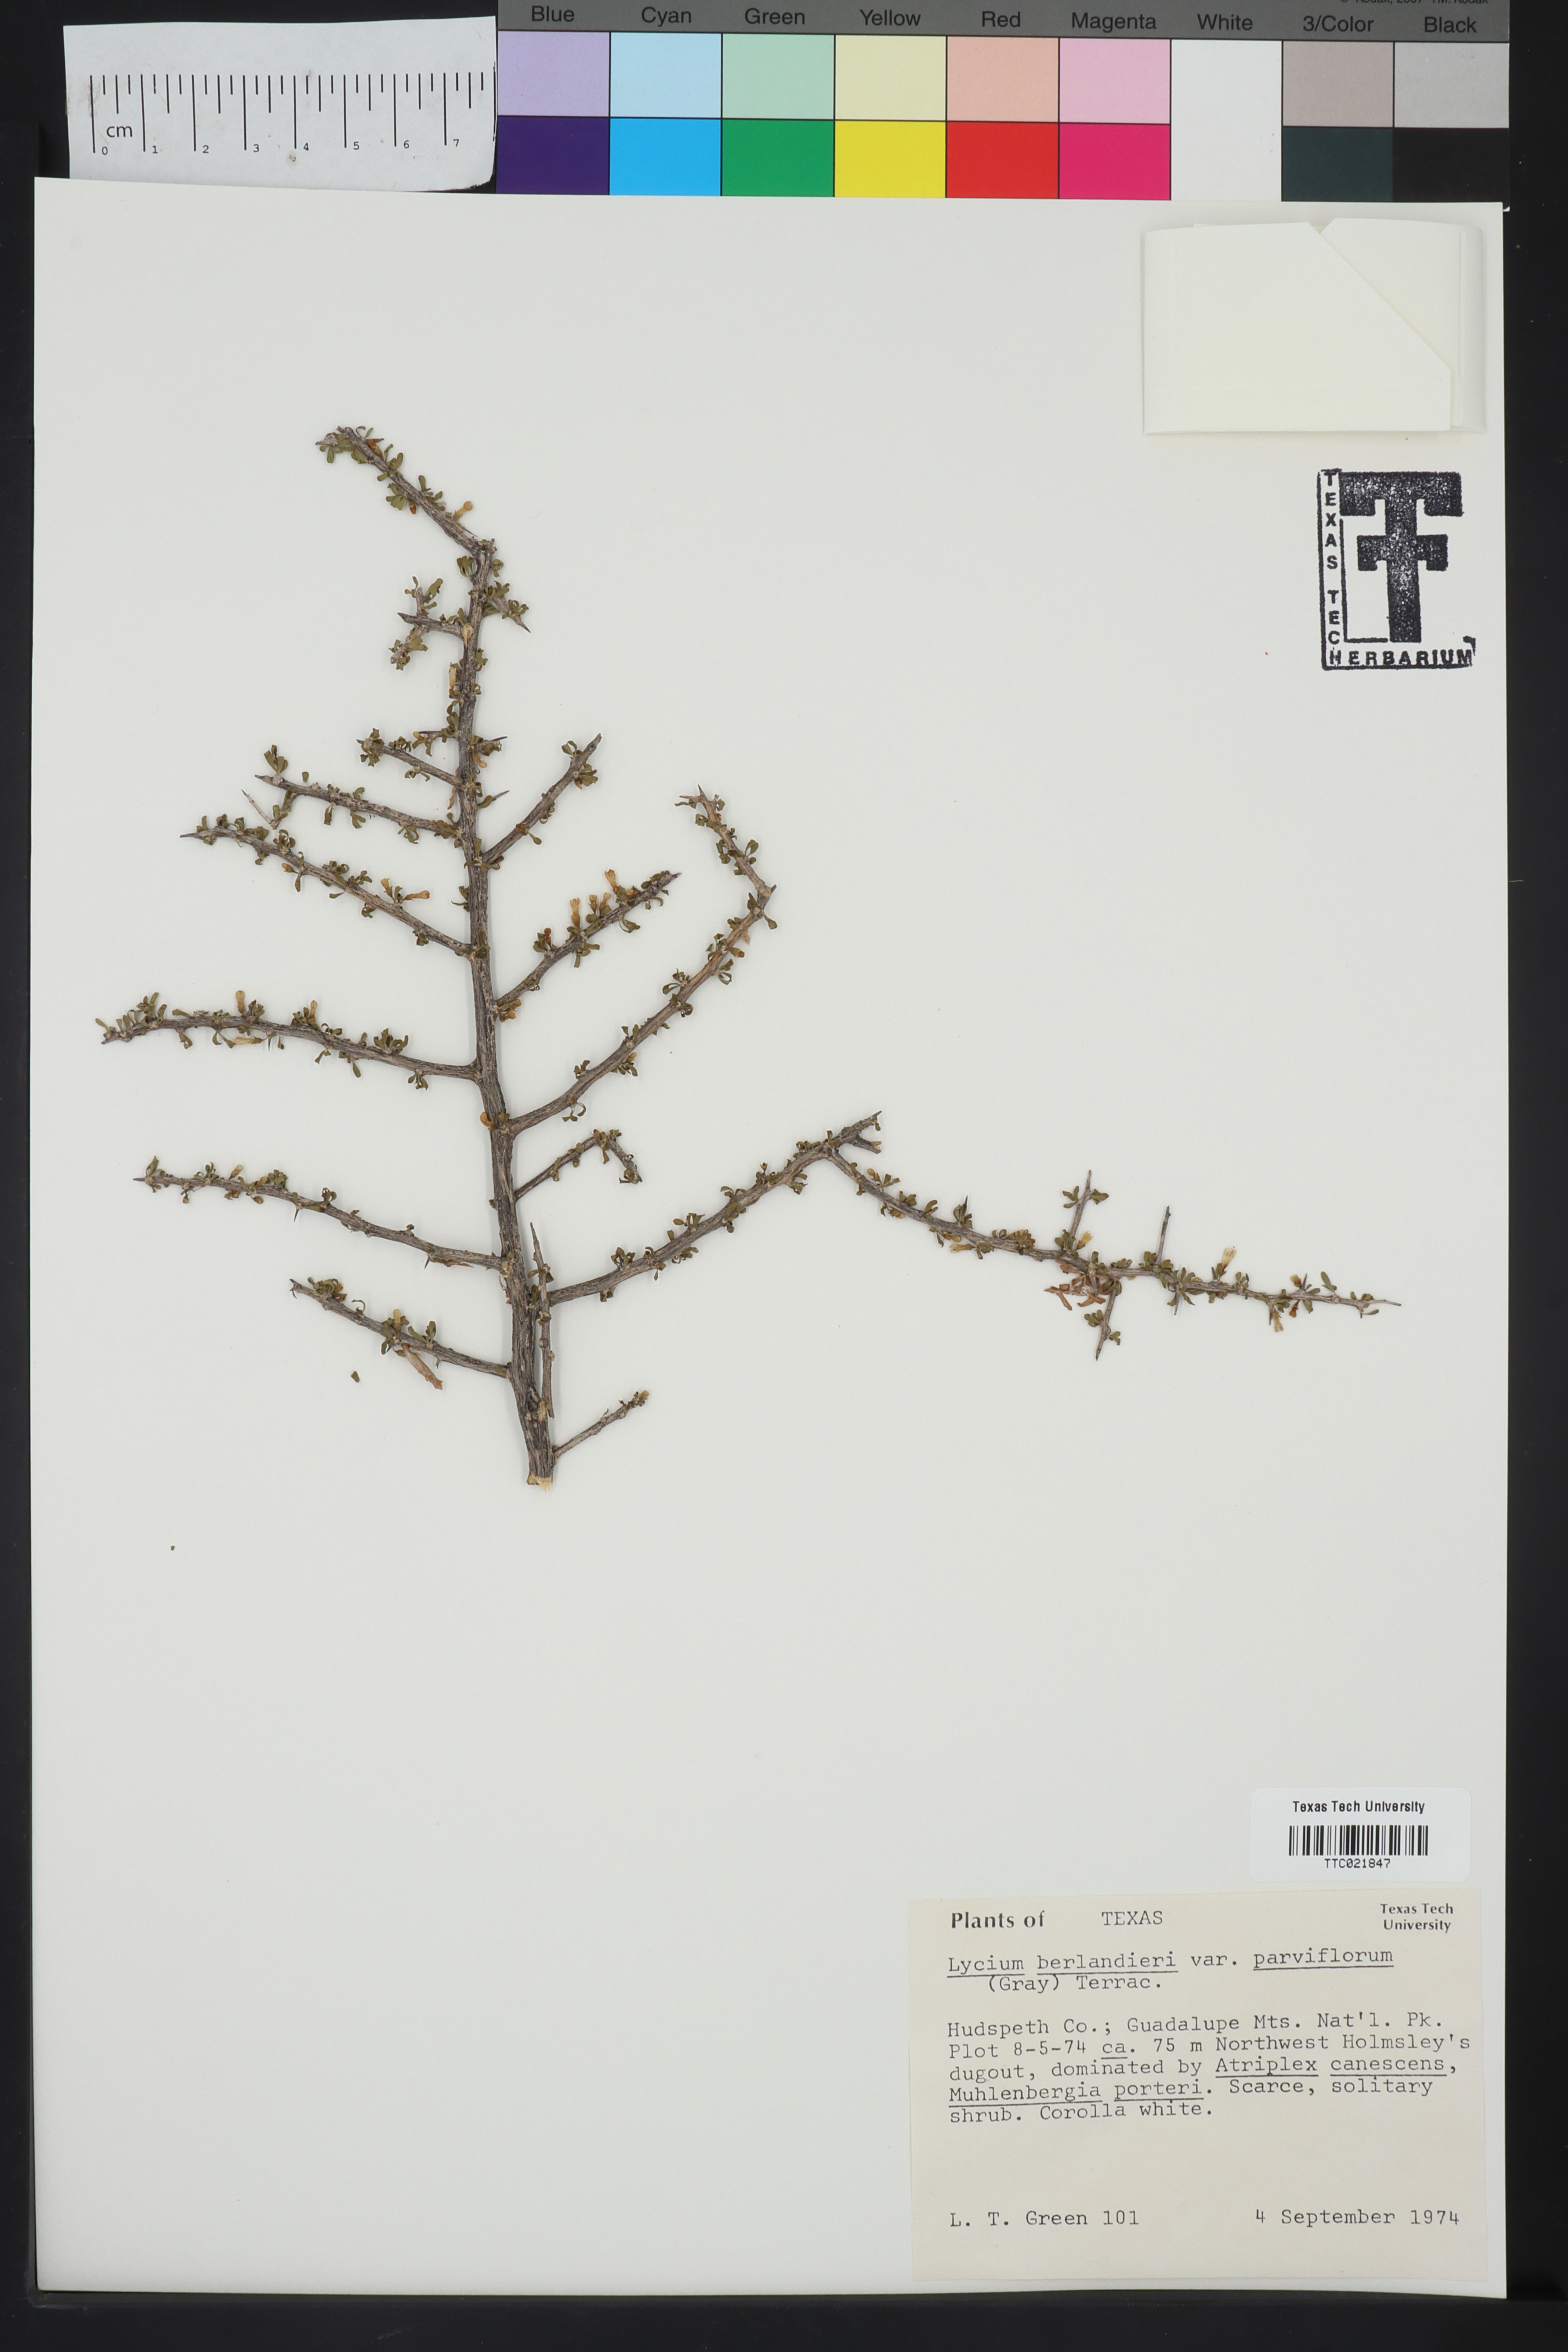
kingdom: Plantae
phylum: Tracheophyta
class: Magnoliopsida
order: Solanales
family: Solanaceae
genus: Lycium
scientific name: Lycium berlandieri
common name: Berlandier wolfberry
